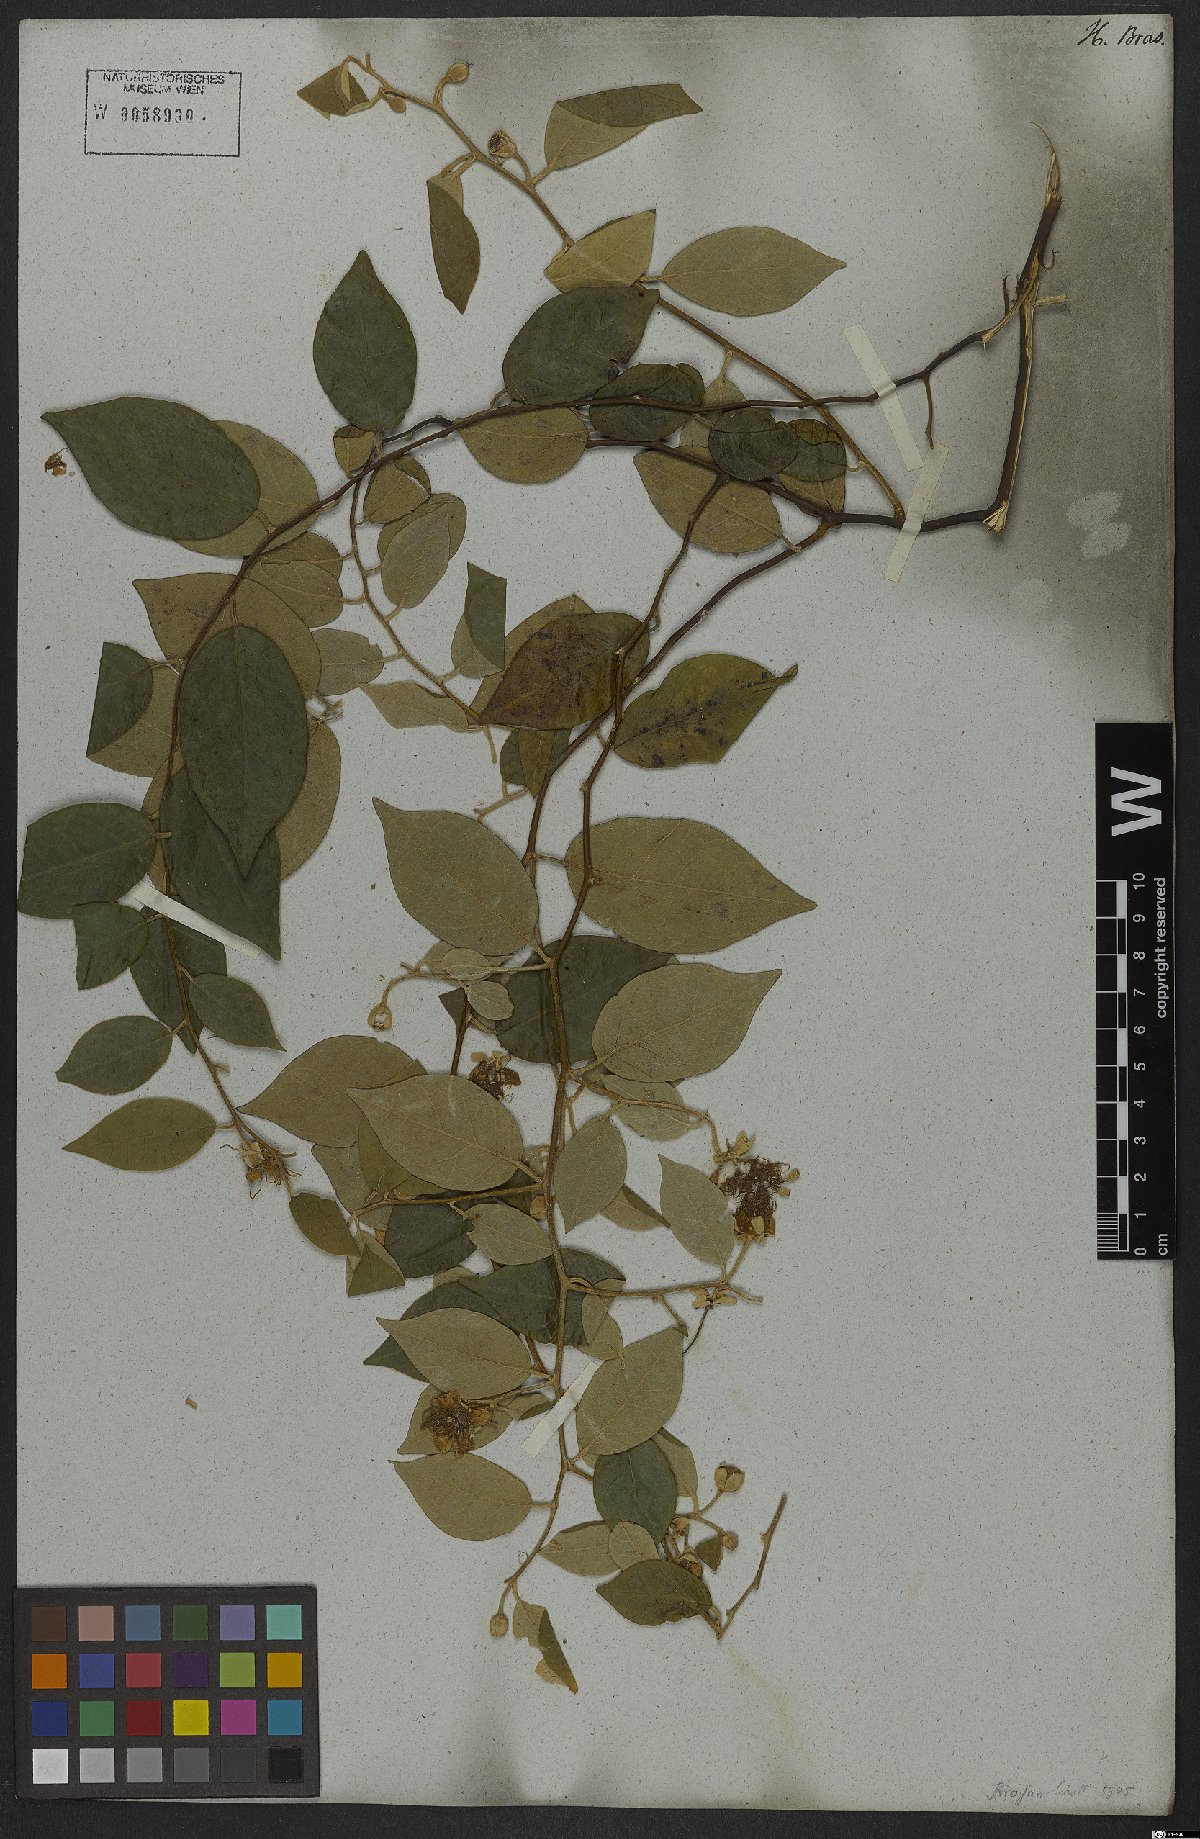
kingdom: Plantae
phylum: Tracheophyta
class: Magnoliopsida
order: Brassicales
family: Capparaceae
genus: Mesocapparis
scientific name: Mesocapparis lineata
